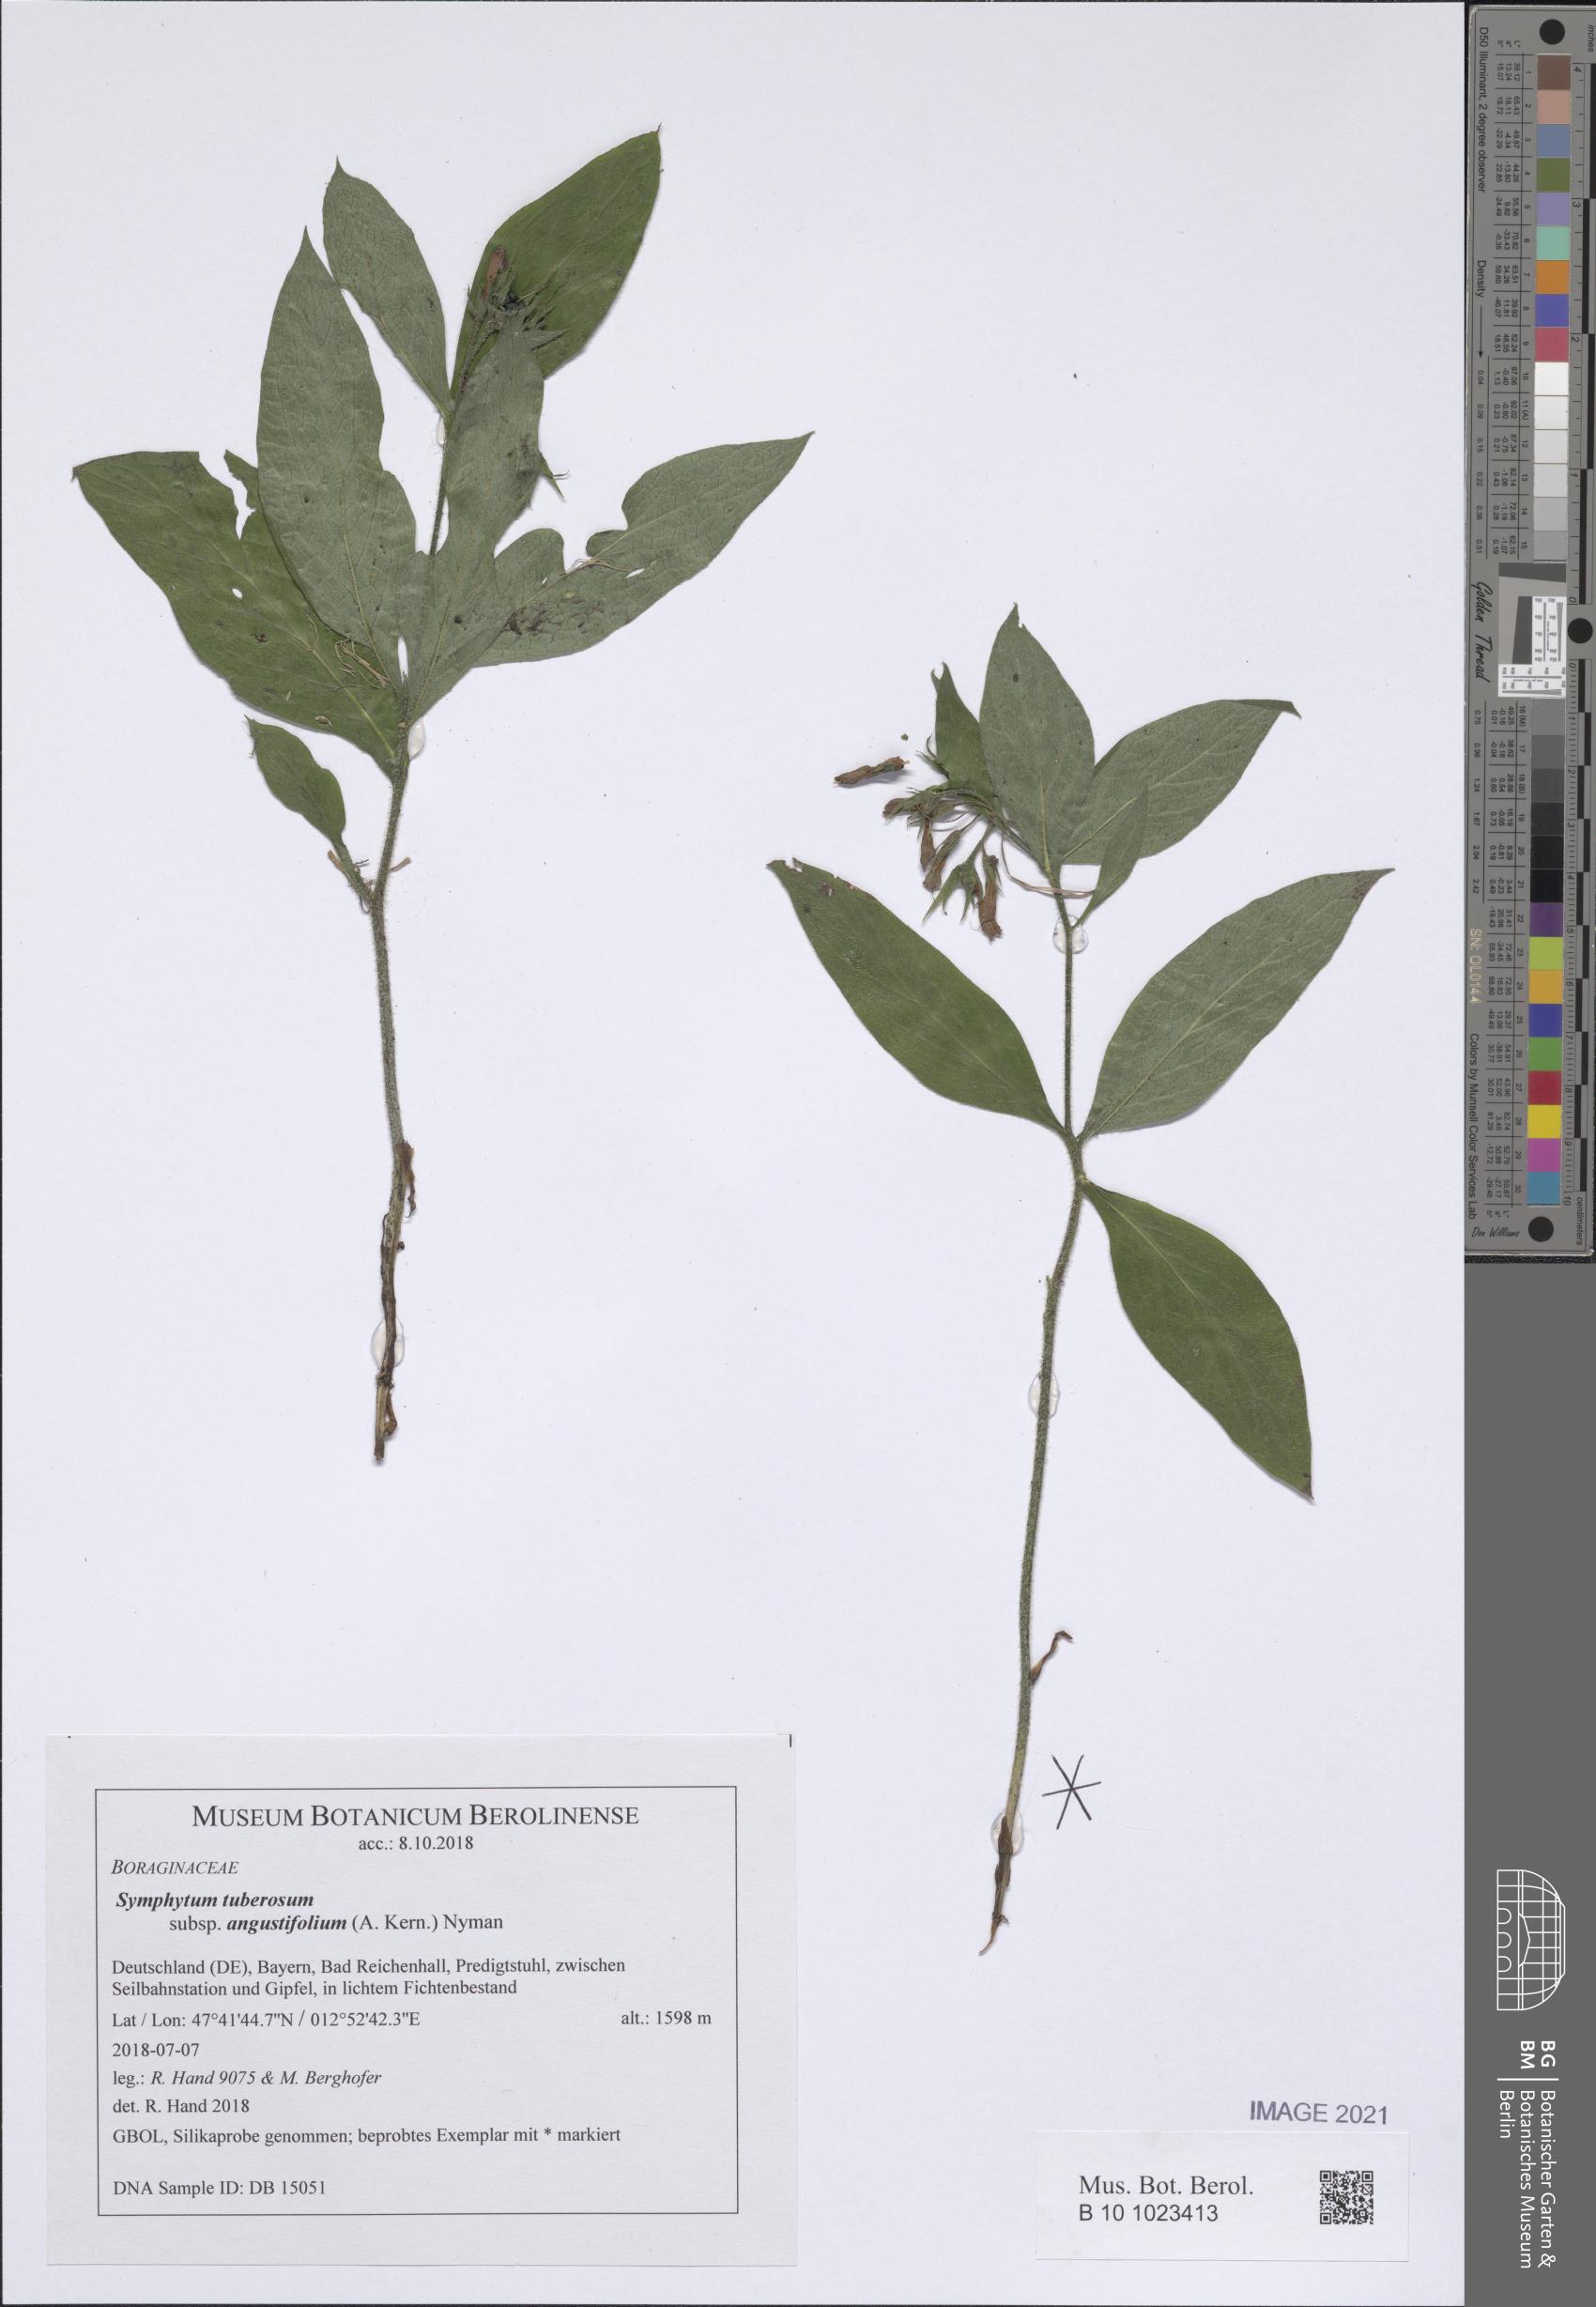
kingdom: Plantae
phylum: Tracheophyta
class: Magnoliopsida
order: Boraginales
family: Boraginaceae
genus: Symphytum
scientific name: Symphytum tuberosum
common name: Tuberous comfrey
